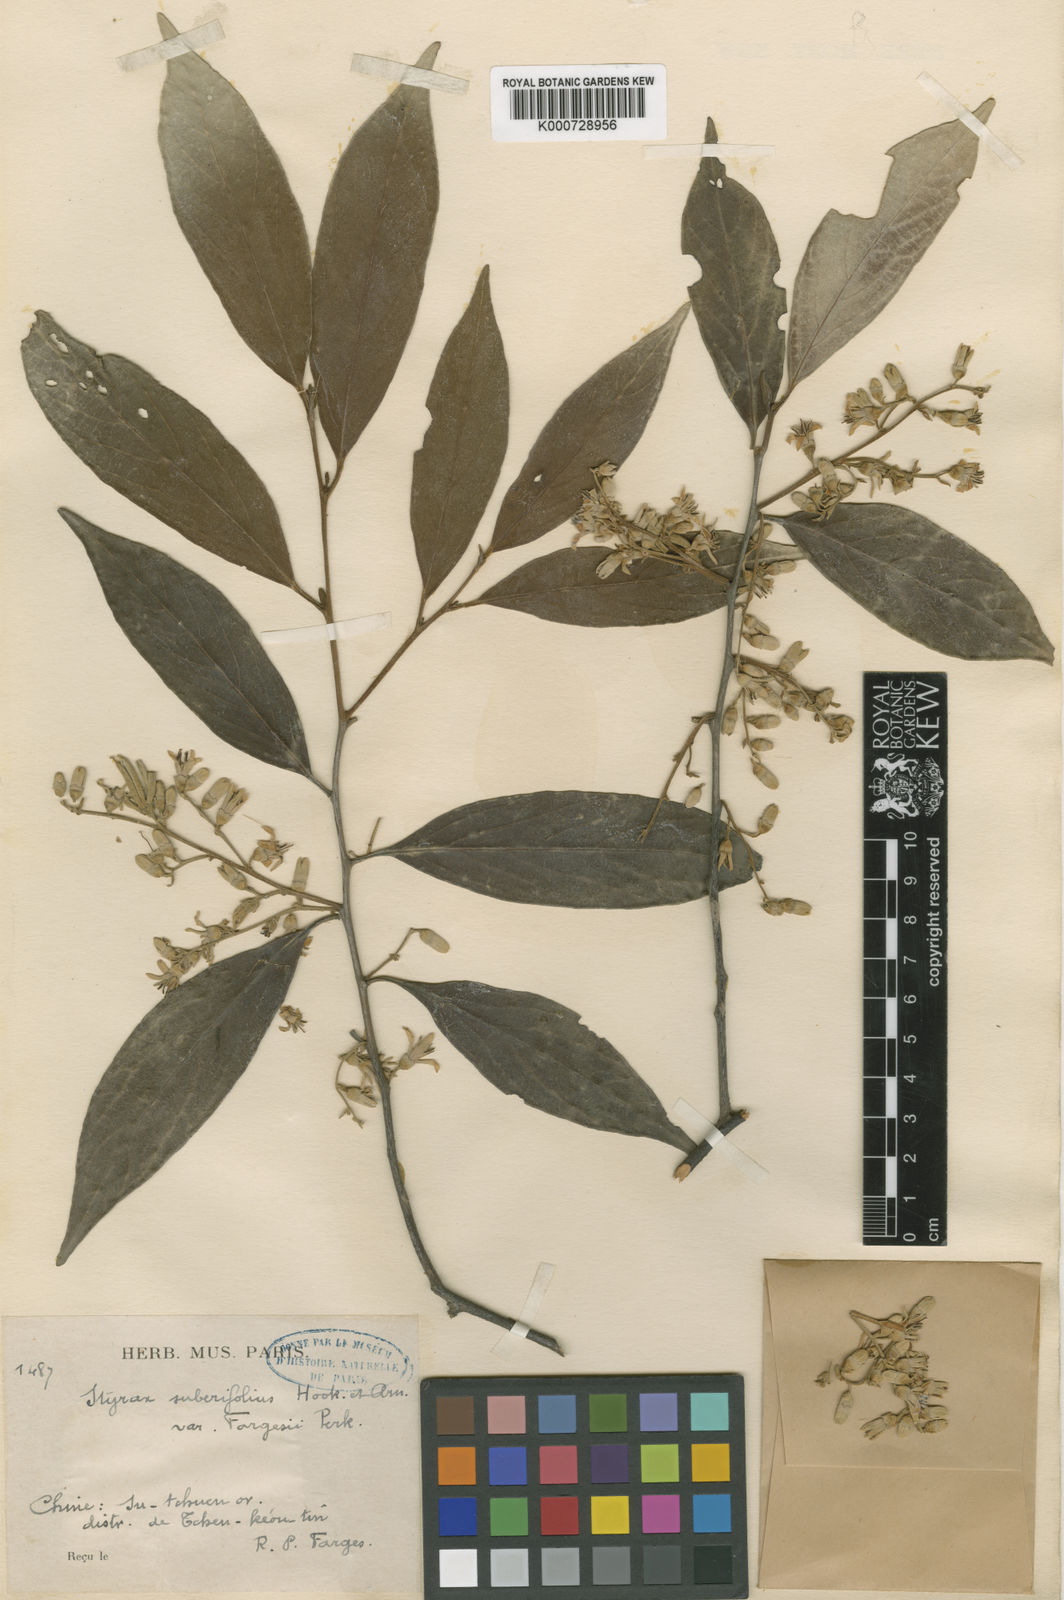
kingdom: Plantae
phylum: Tracheophyta
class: Magnoliopsida
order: Ericales
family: Styracaceae
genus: Styrax
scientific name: Styrax suberifolius
